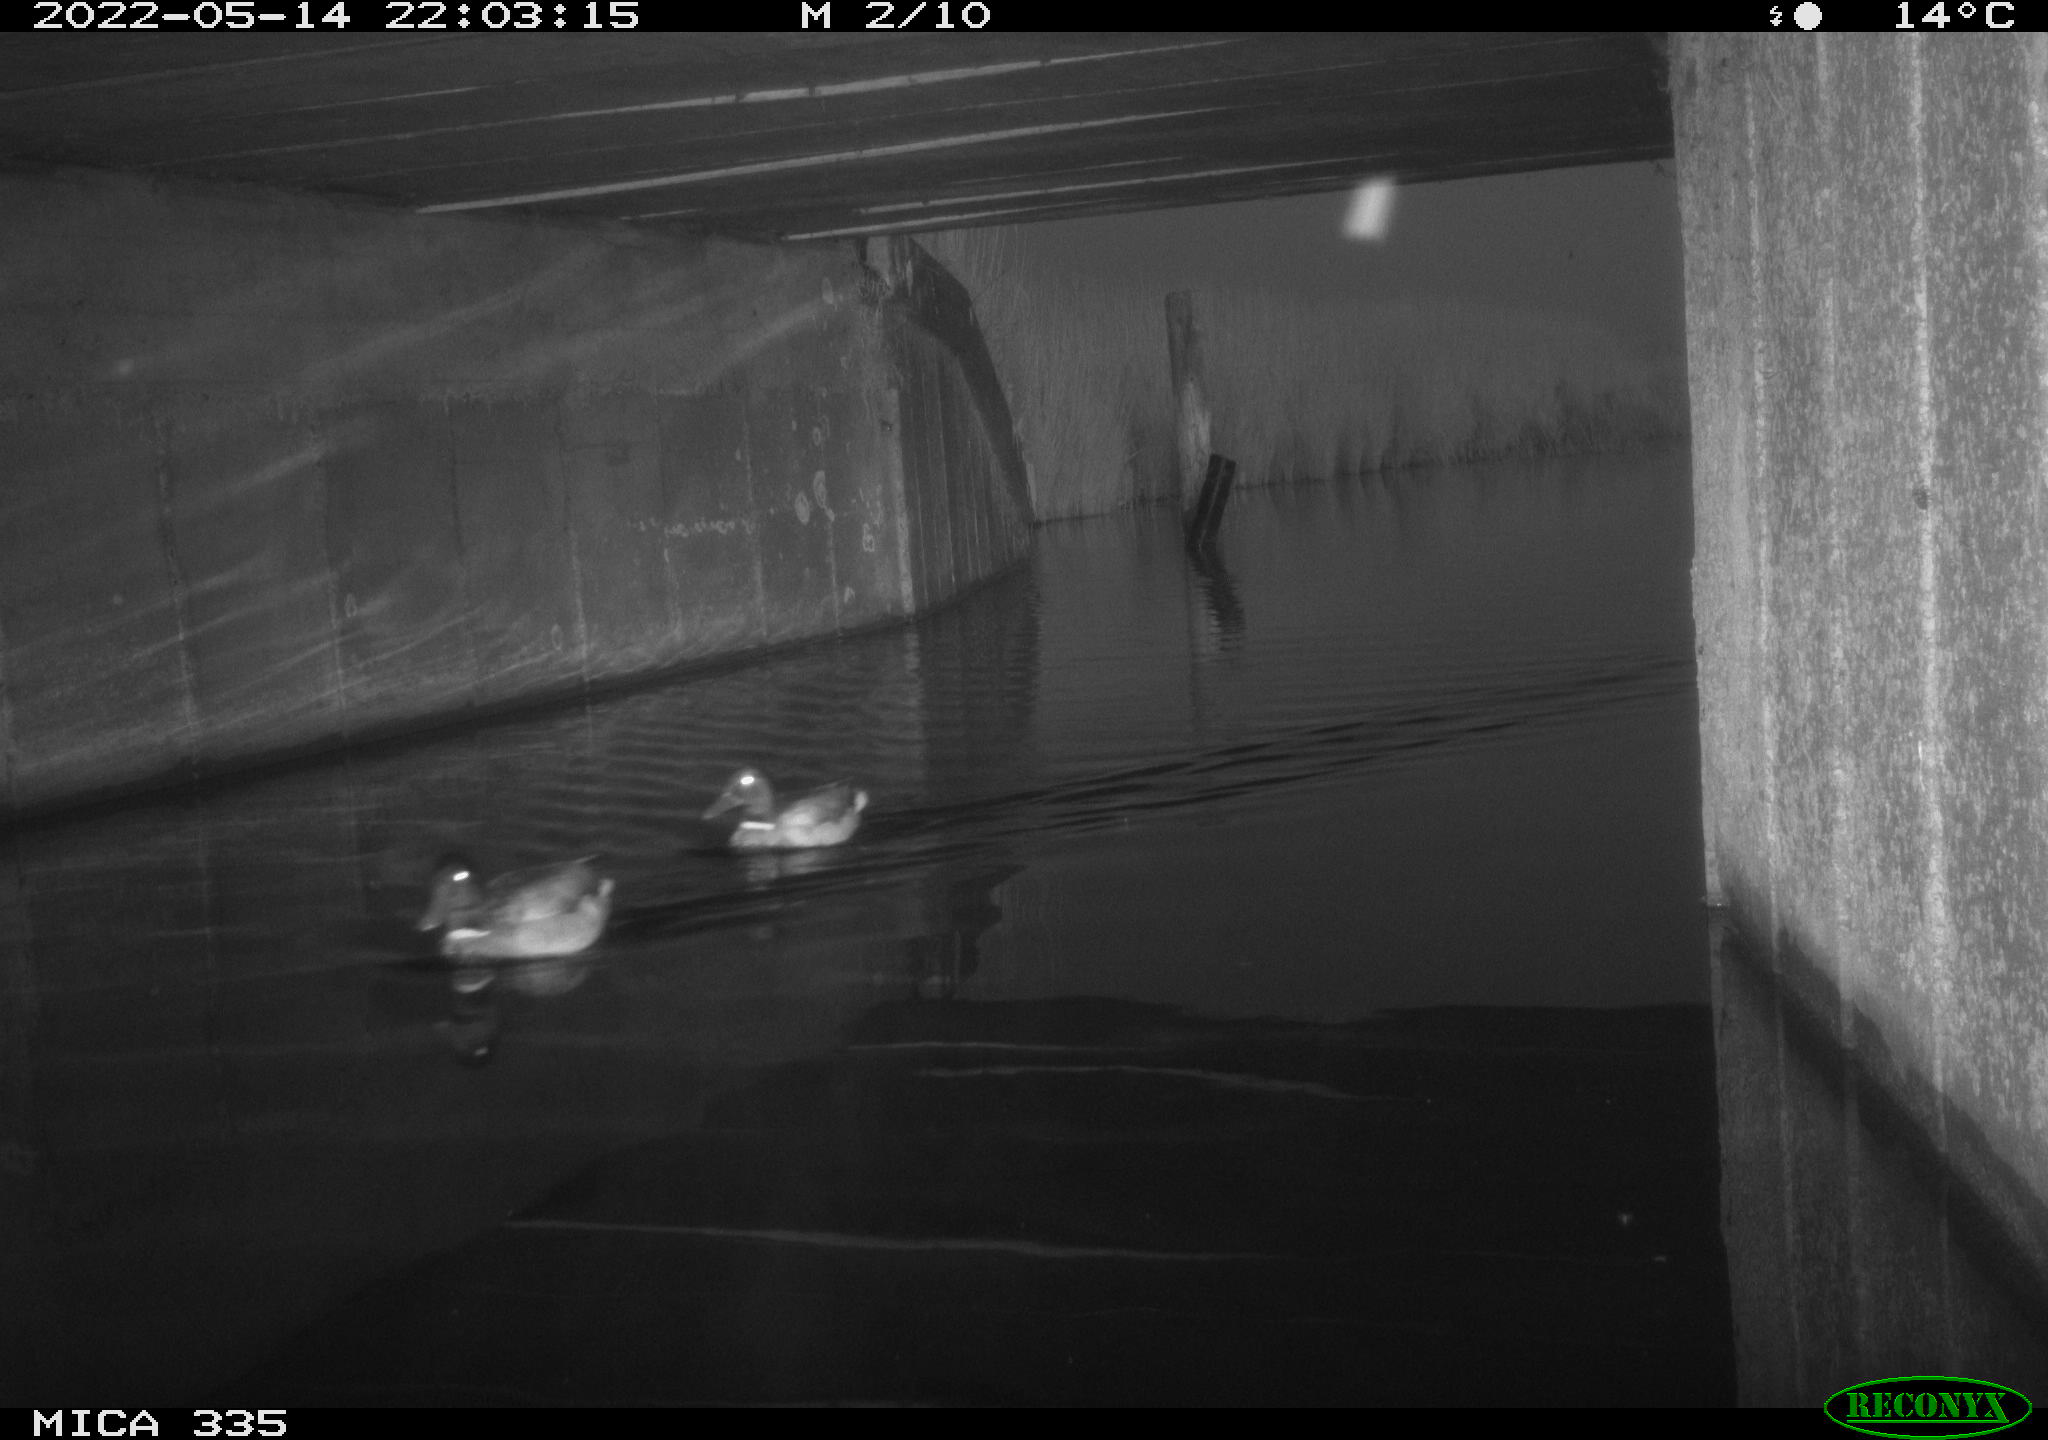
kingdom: Animalia
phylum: Chordata
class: Aves
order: Anseriformes
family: Anatidae
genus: Anas
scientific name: Anas platyrhynchos
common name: Mallard
